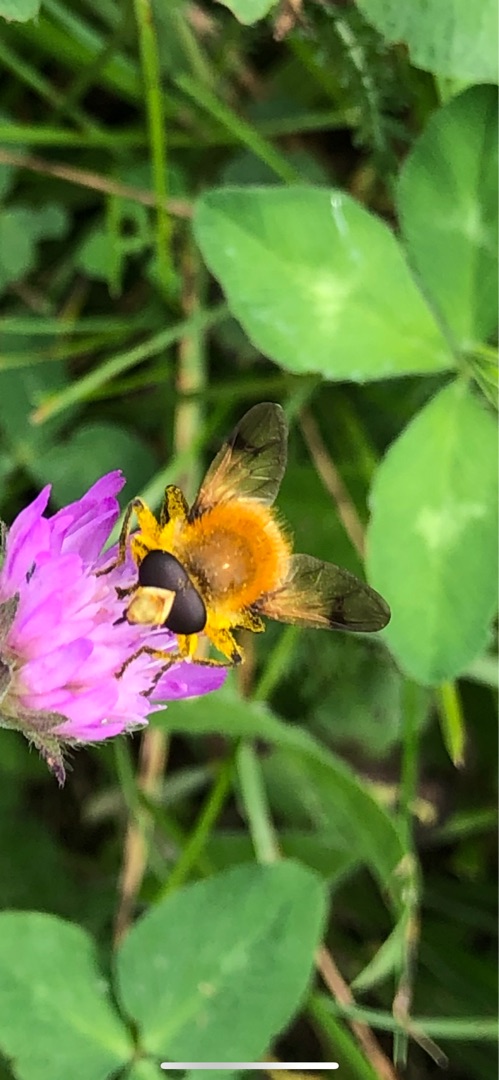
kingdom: Animalia
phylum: Arthropoda
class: Insecta
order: Diptera
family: Syrphidae
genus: Sericomyia
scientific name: Sericomyia superbiens
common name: Brun bjørnesvirreflue
